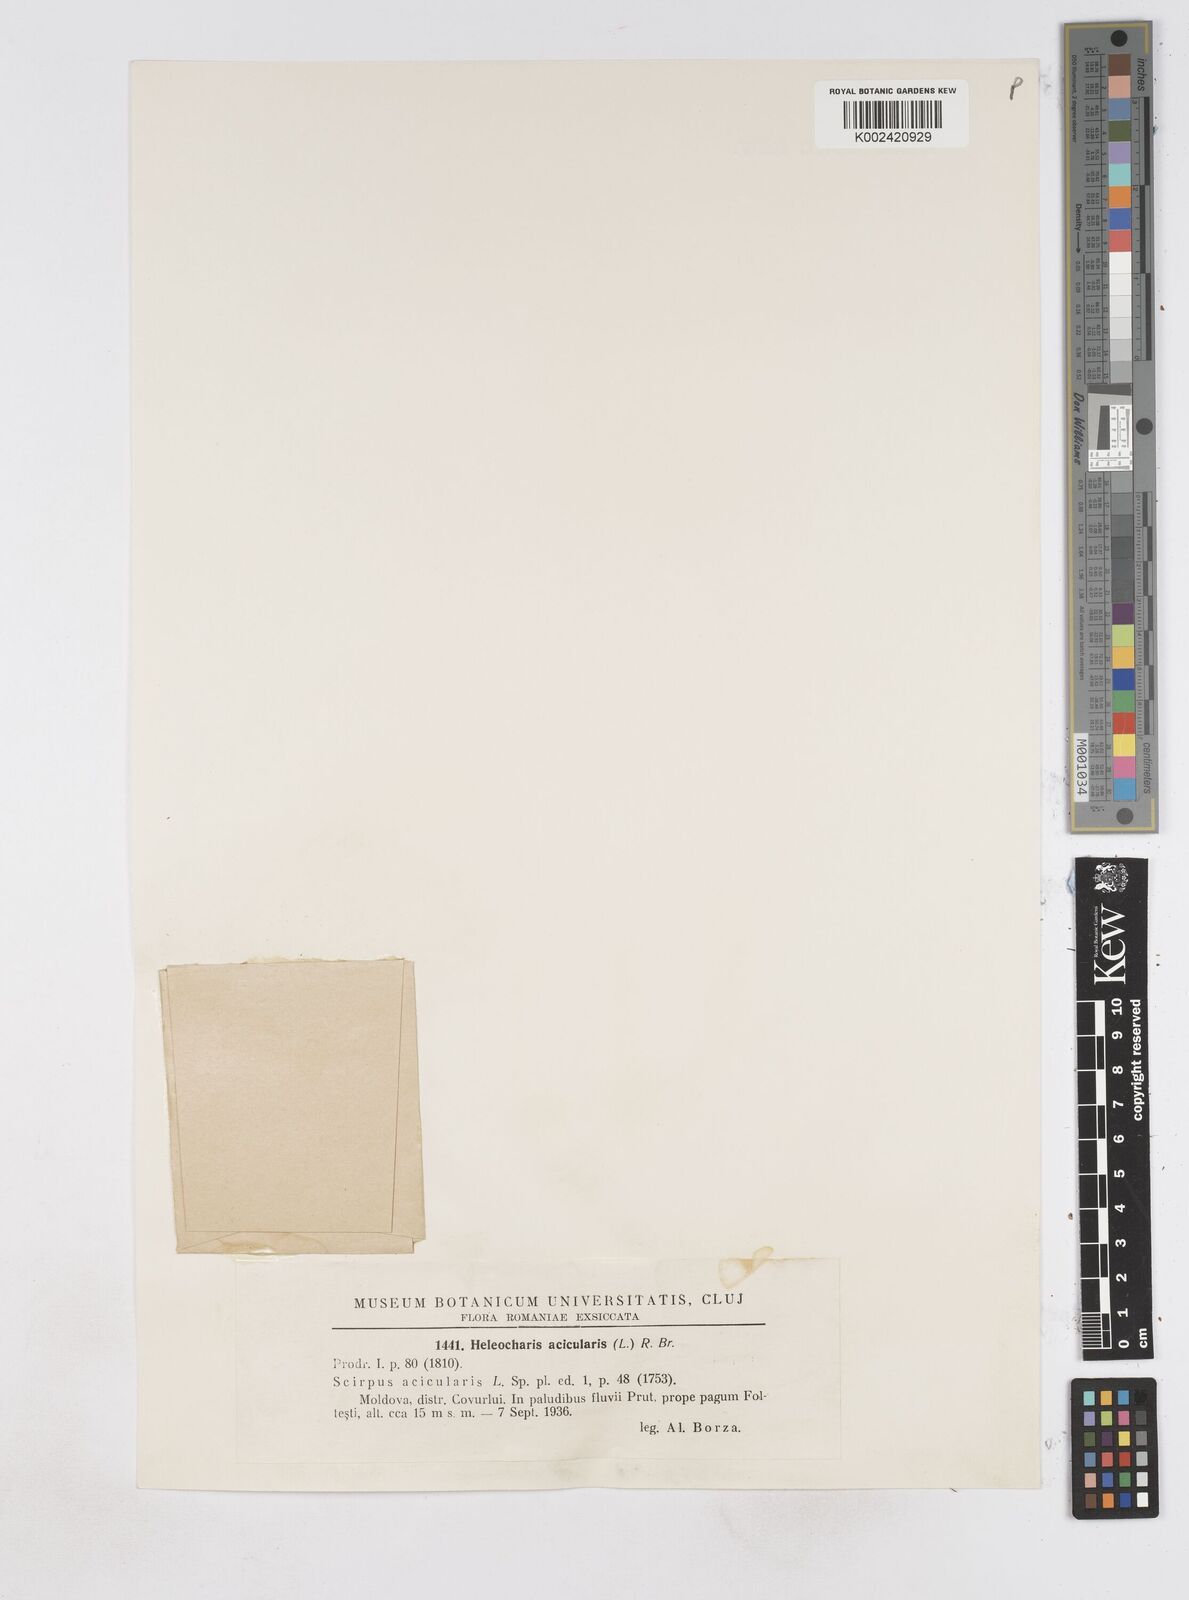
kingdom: Plantae
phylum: Tracheophyta
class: Liliopsida
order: Poales
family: Cyperaceae
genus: Eleocharis
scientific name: Eleocharis acicularis
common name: Needle spike-rush
